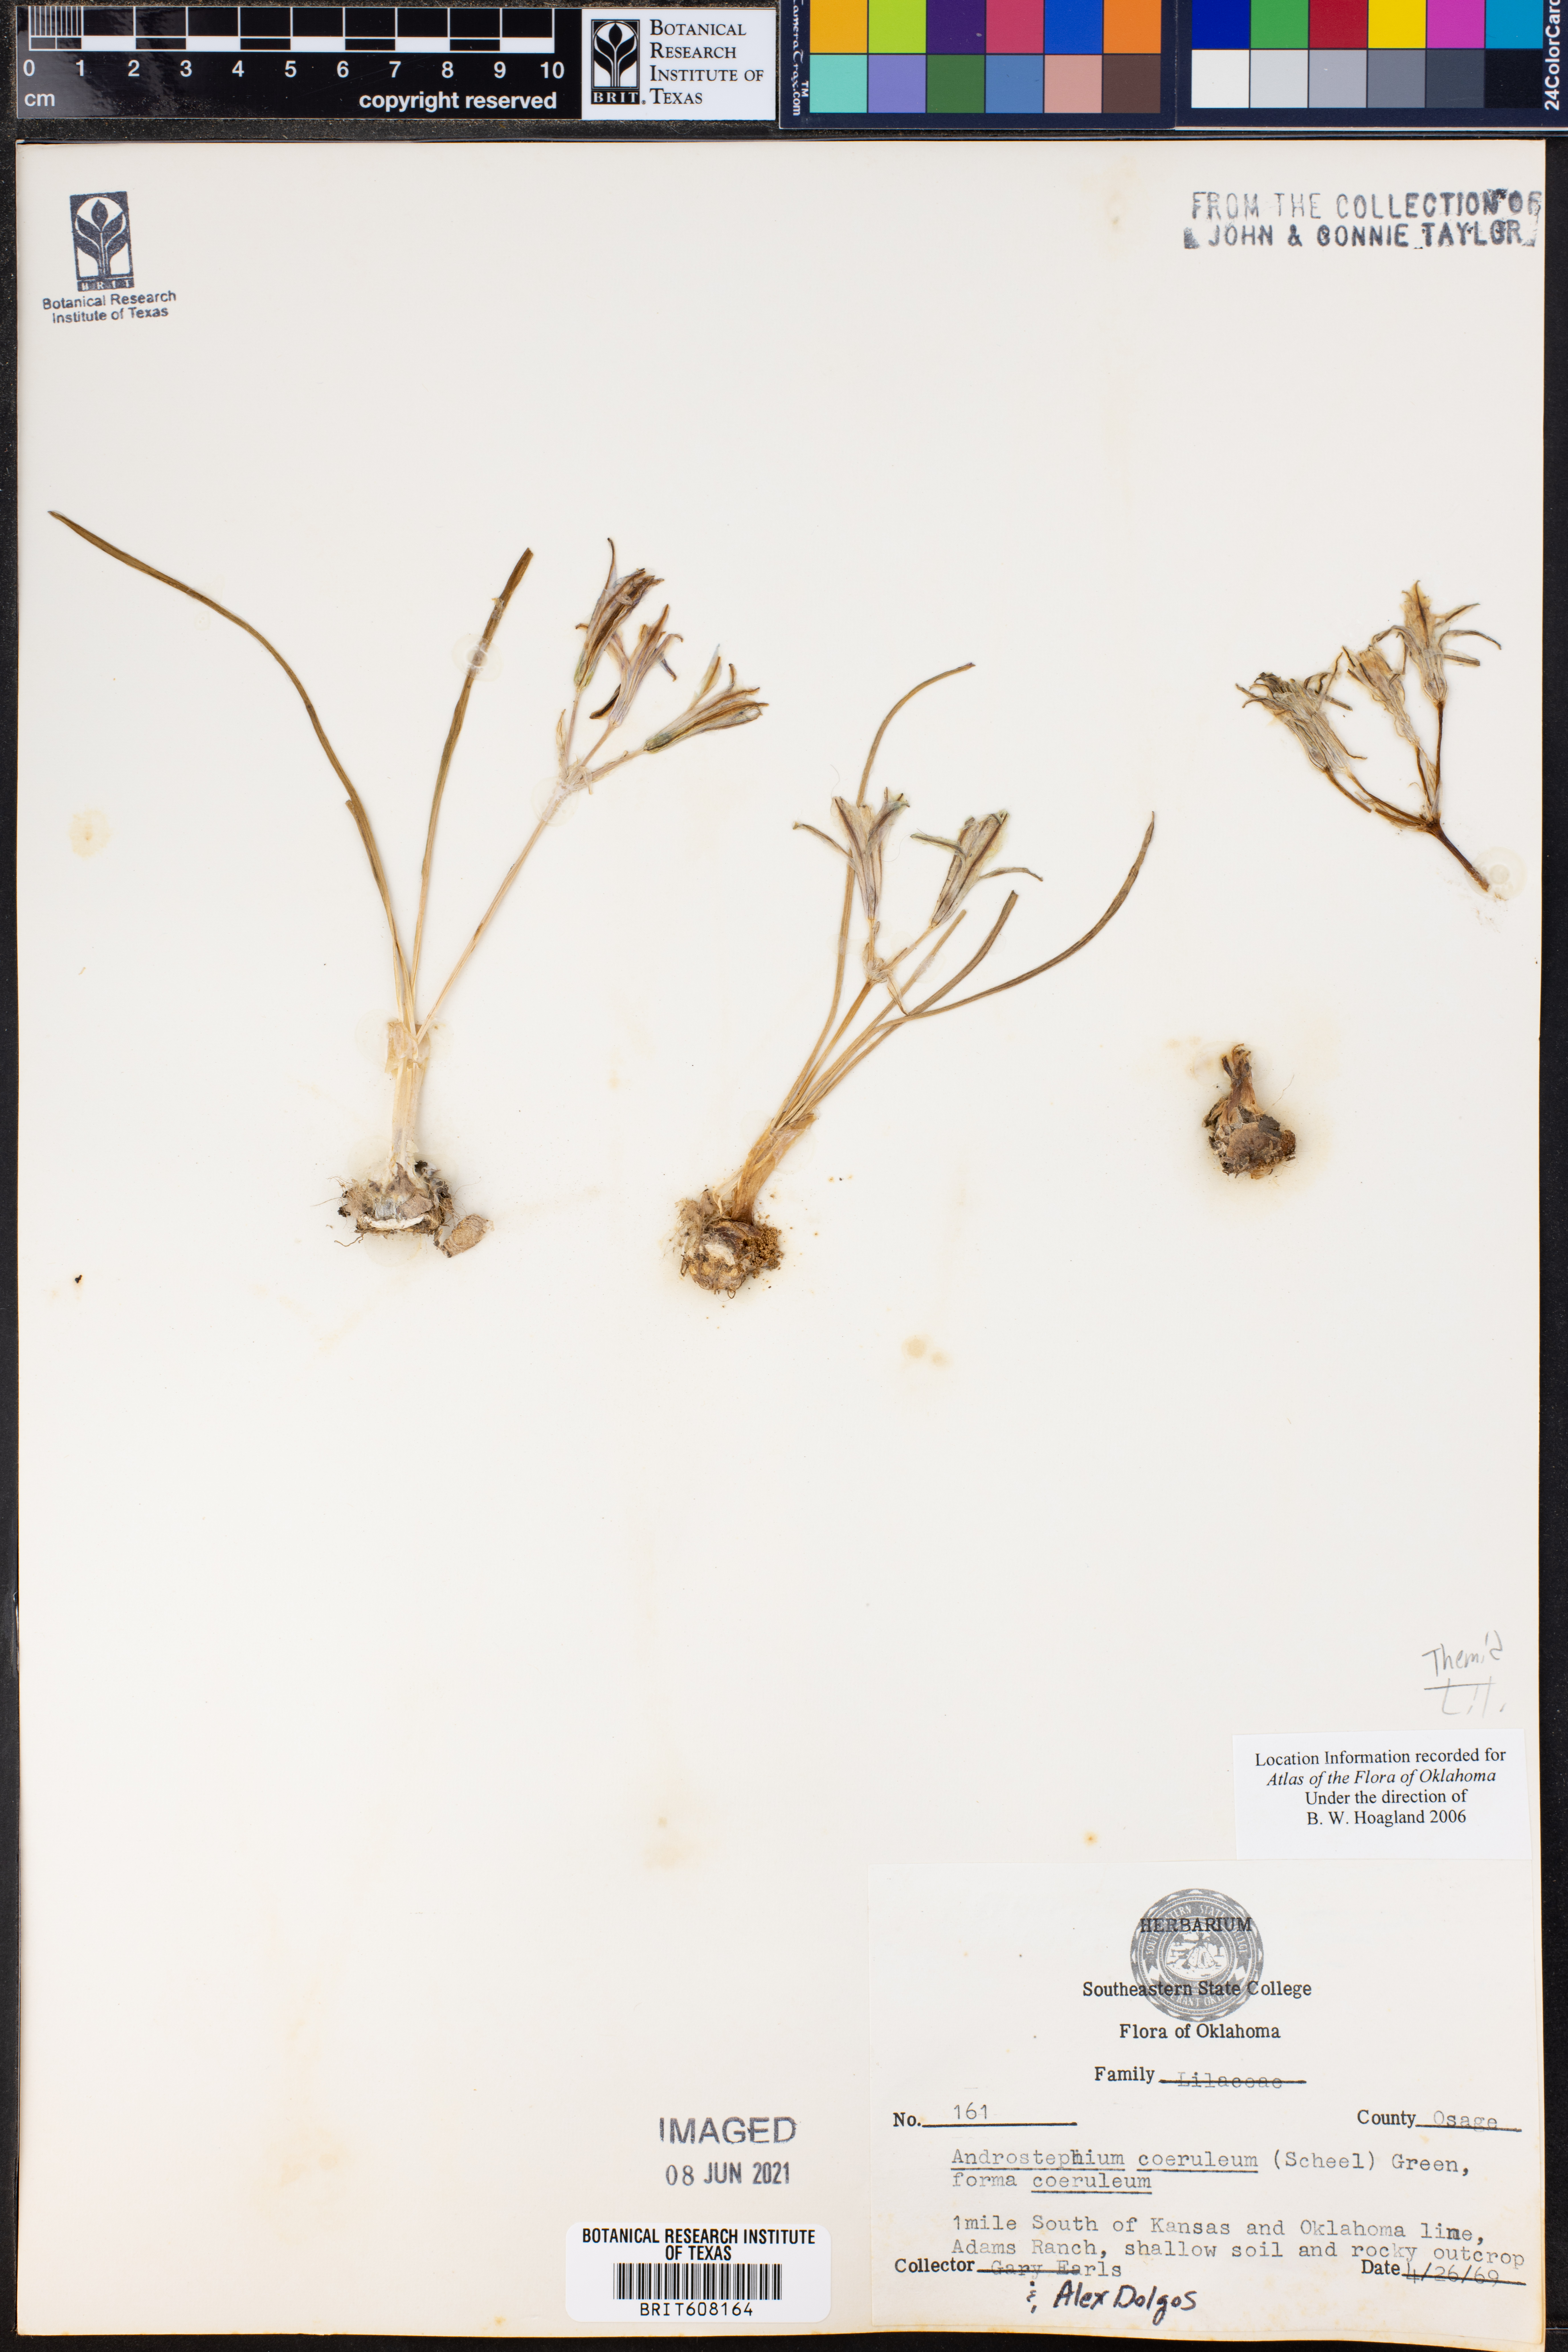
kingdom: Plantae
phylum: Tracheophyta
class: Liliopsida
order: Asparagales
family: Asparagaceae
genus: Androstephium
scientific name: Androstephium coeruleum
